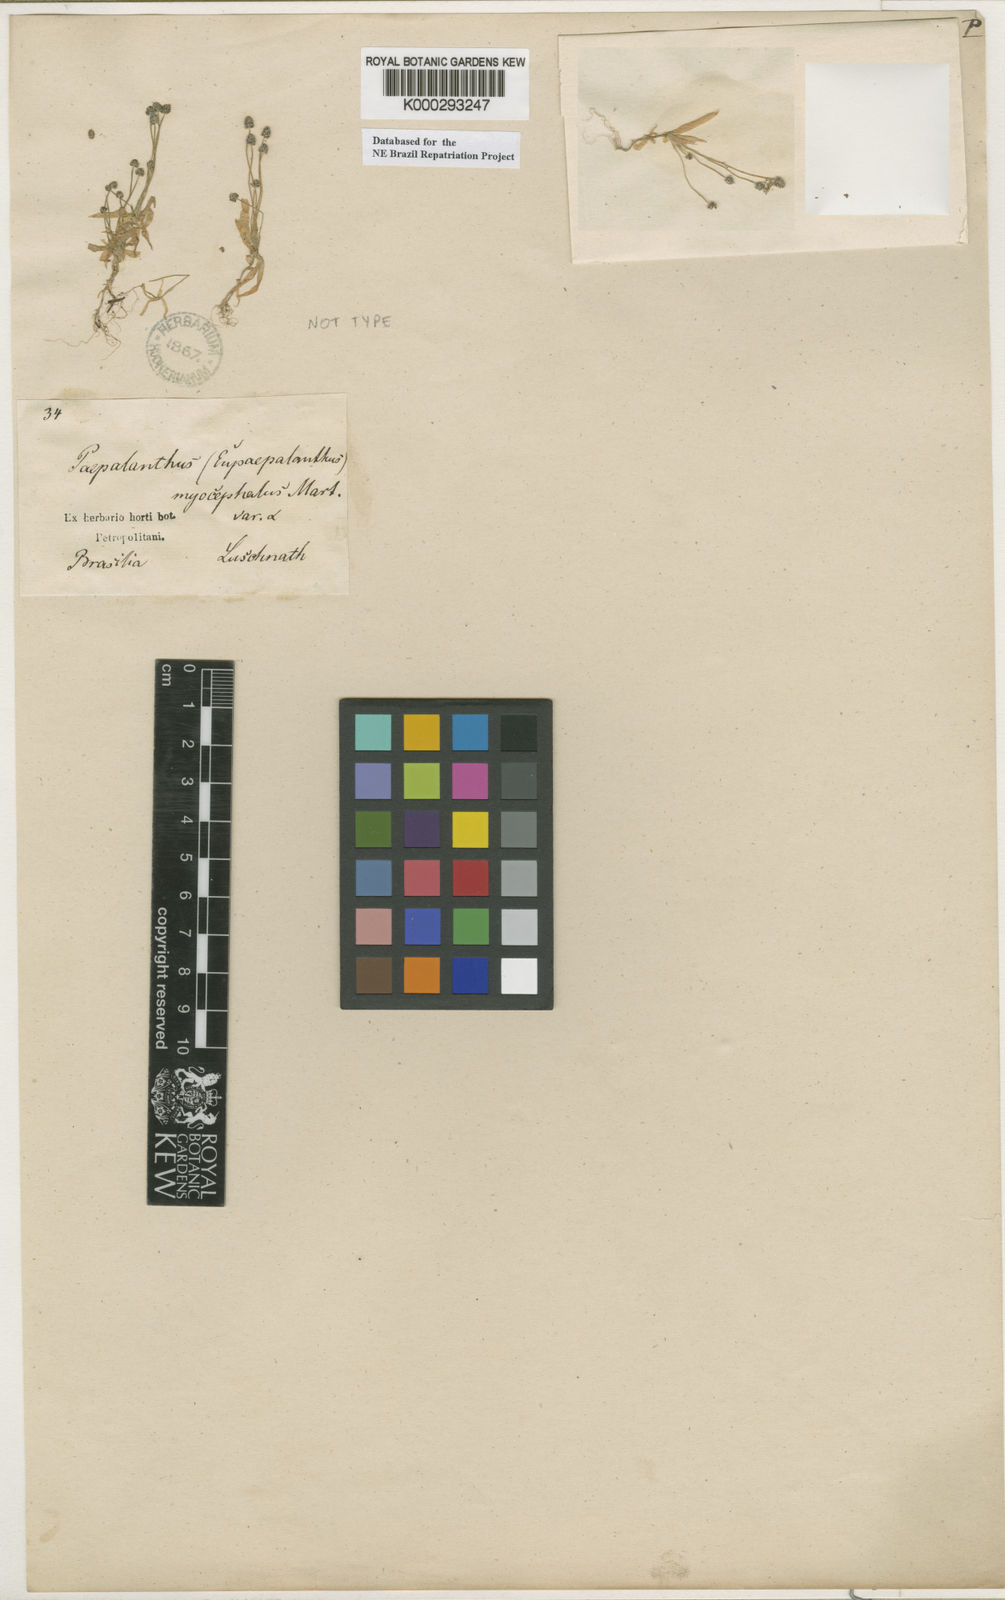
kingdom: Plantae
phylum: Tracheophyta
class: Liliopsida
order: Poales
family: Eriocaulaceae
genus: Paepalanthus
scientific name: Paepalanthus
